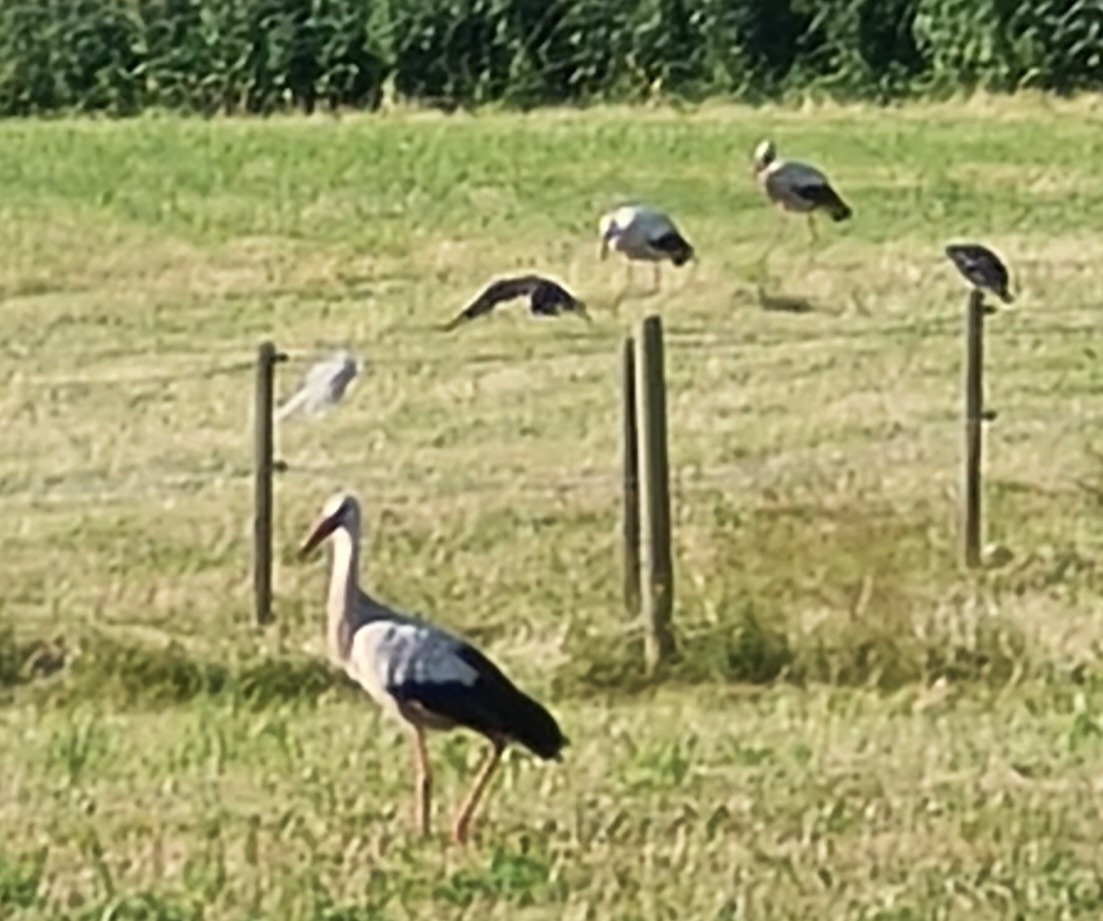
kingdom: Animalia
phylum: Chordata
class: Aves
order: Ciconiiformes
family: Ciconiidae
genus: Ciconia
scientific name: Ciconia ciconia
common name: Hvid stork
